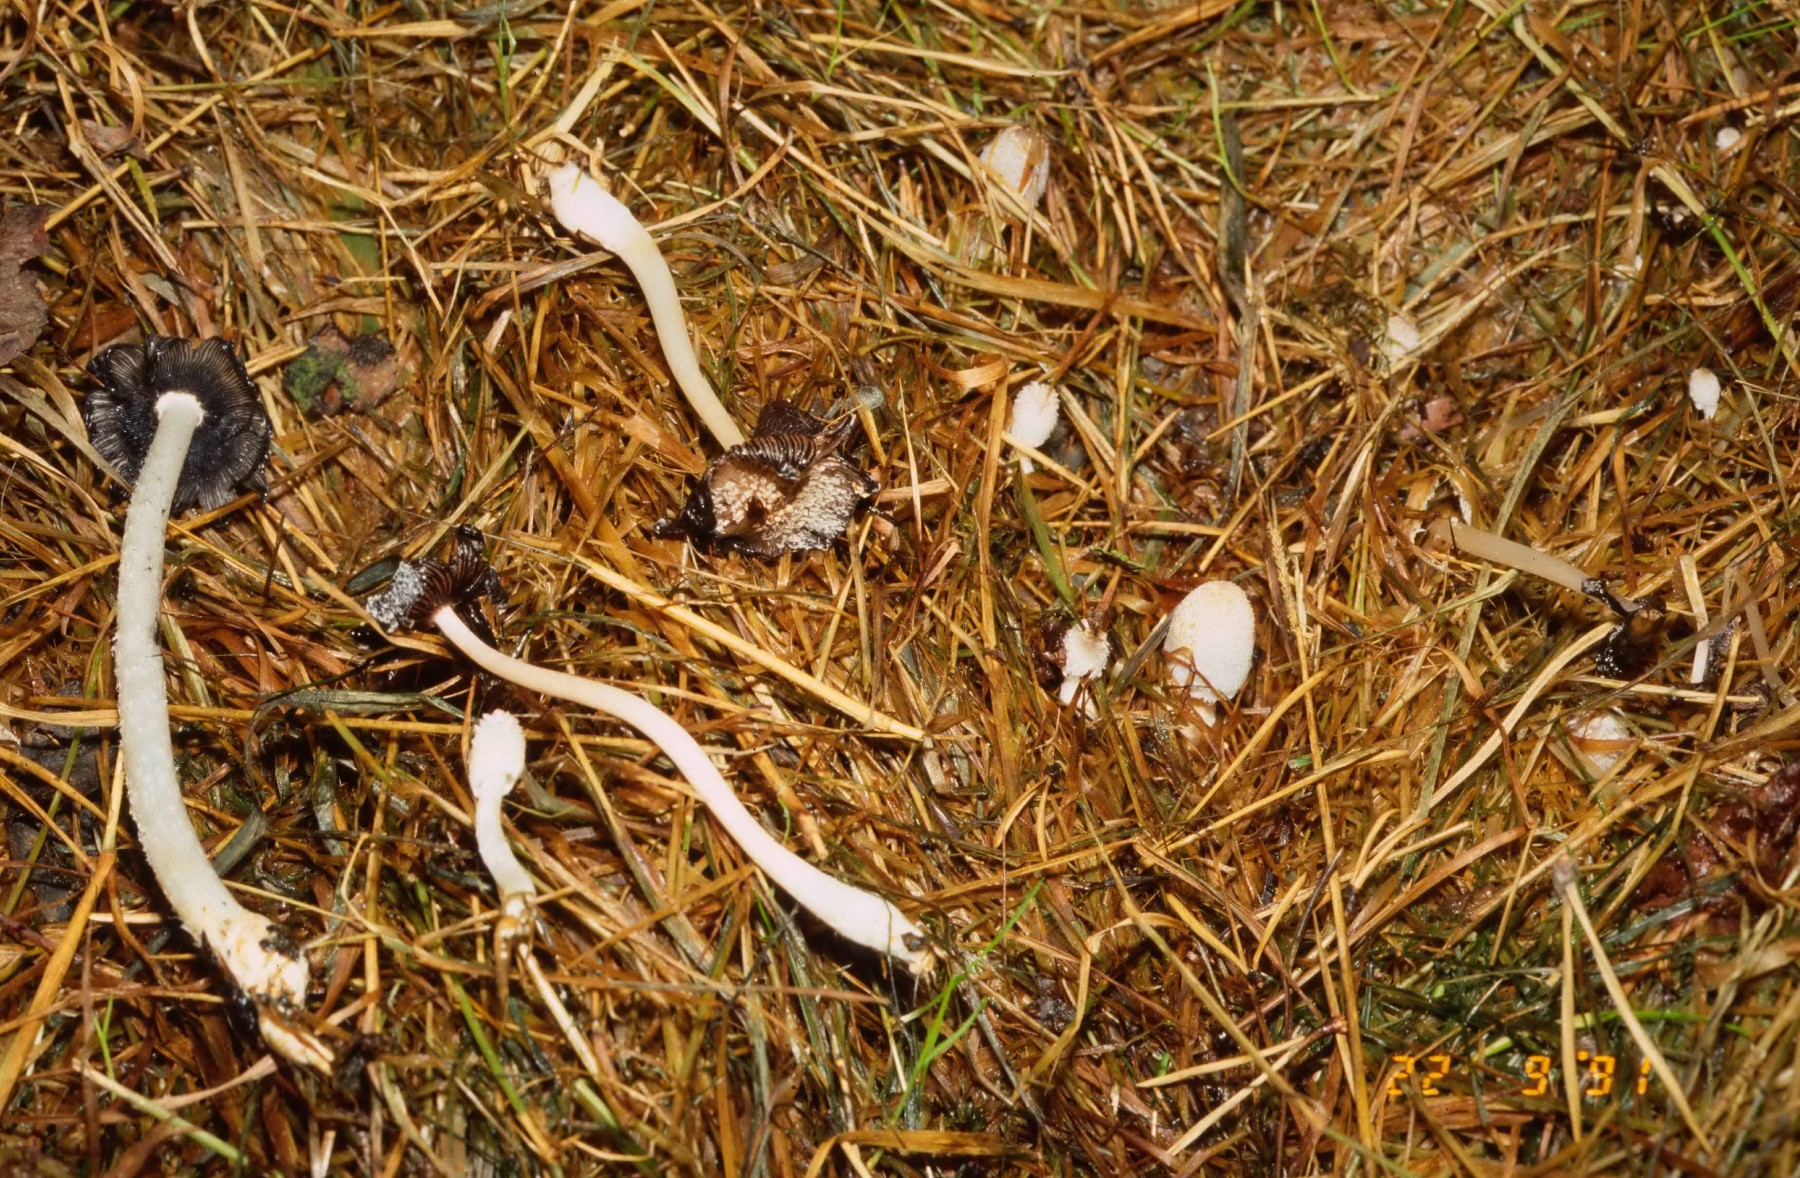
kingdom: Fungi
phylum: Basidiomycota
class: Agaricomycetes
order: Agaricales
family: Psathyrellaceae
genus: Coprinopsis
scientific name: Coprinopsis
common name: blækhat
